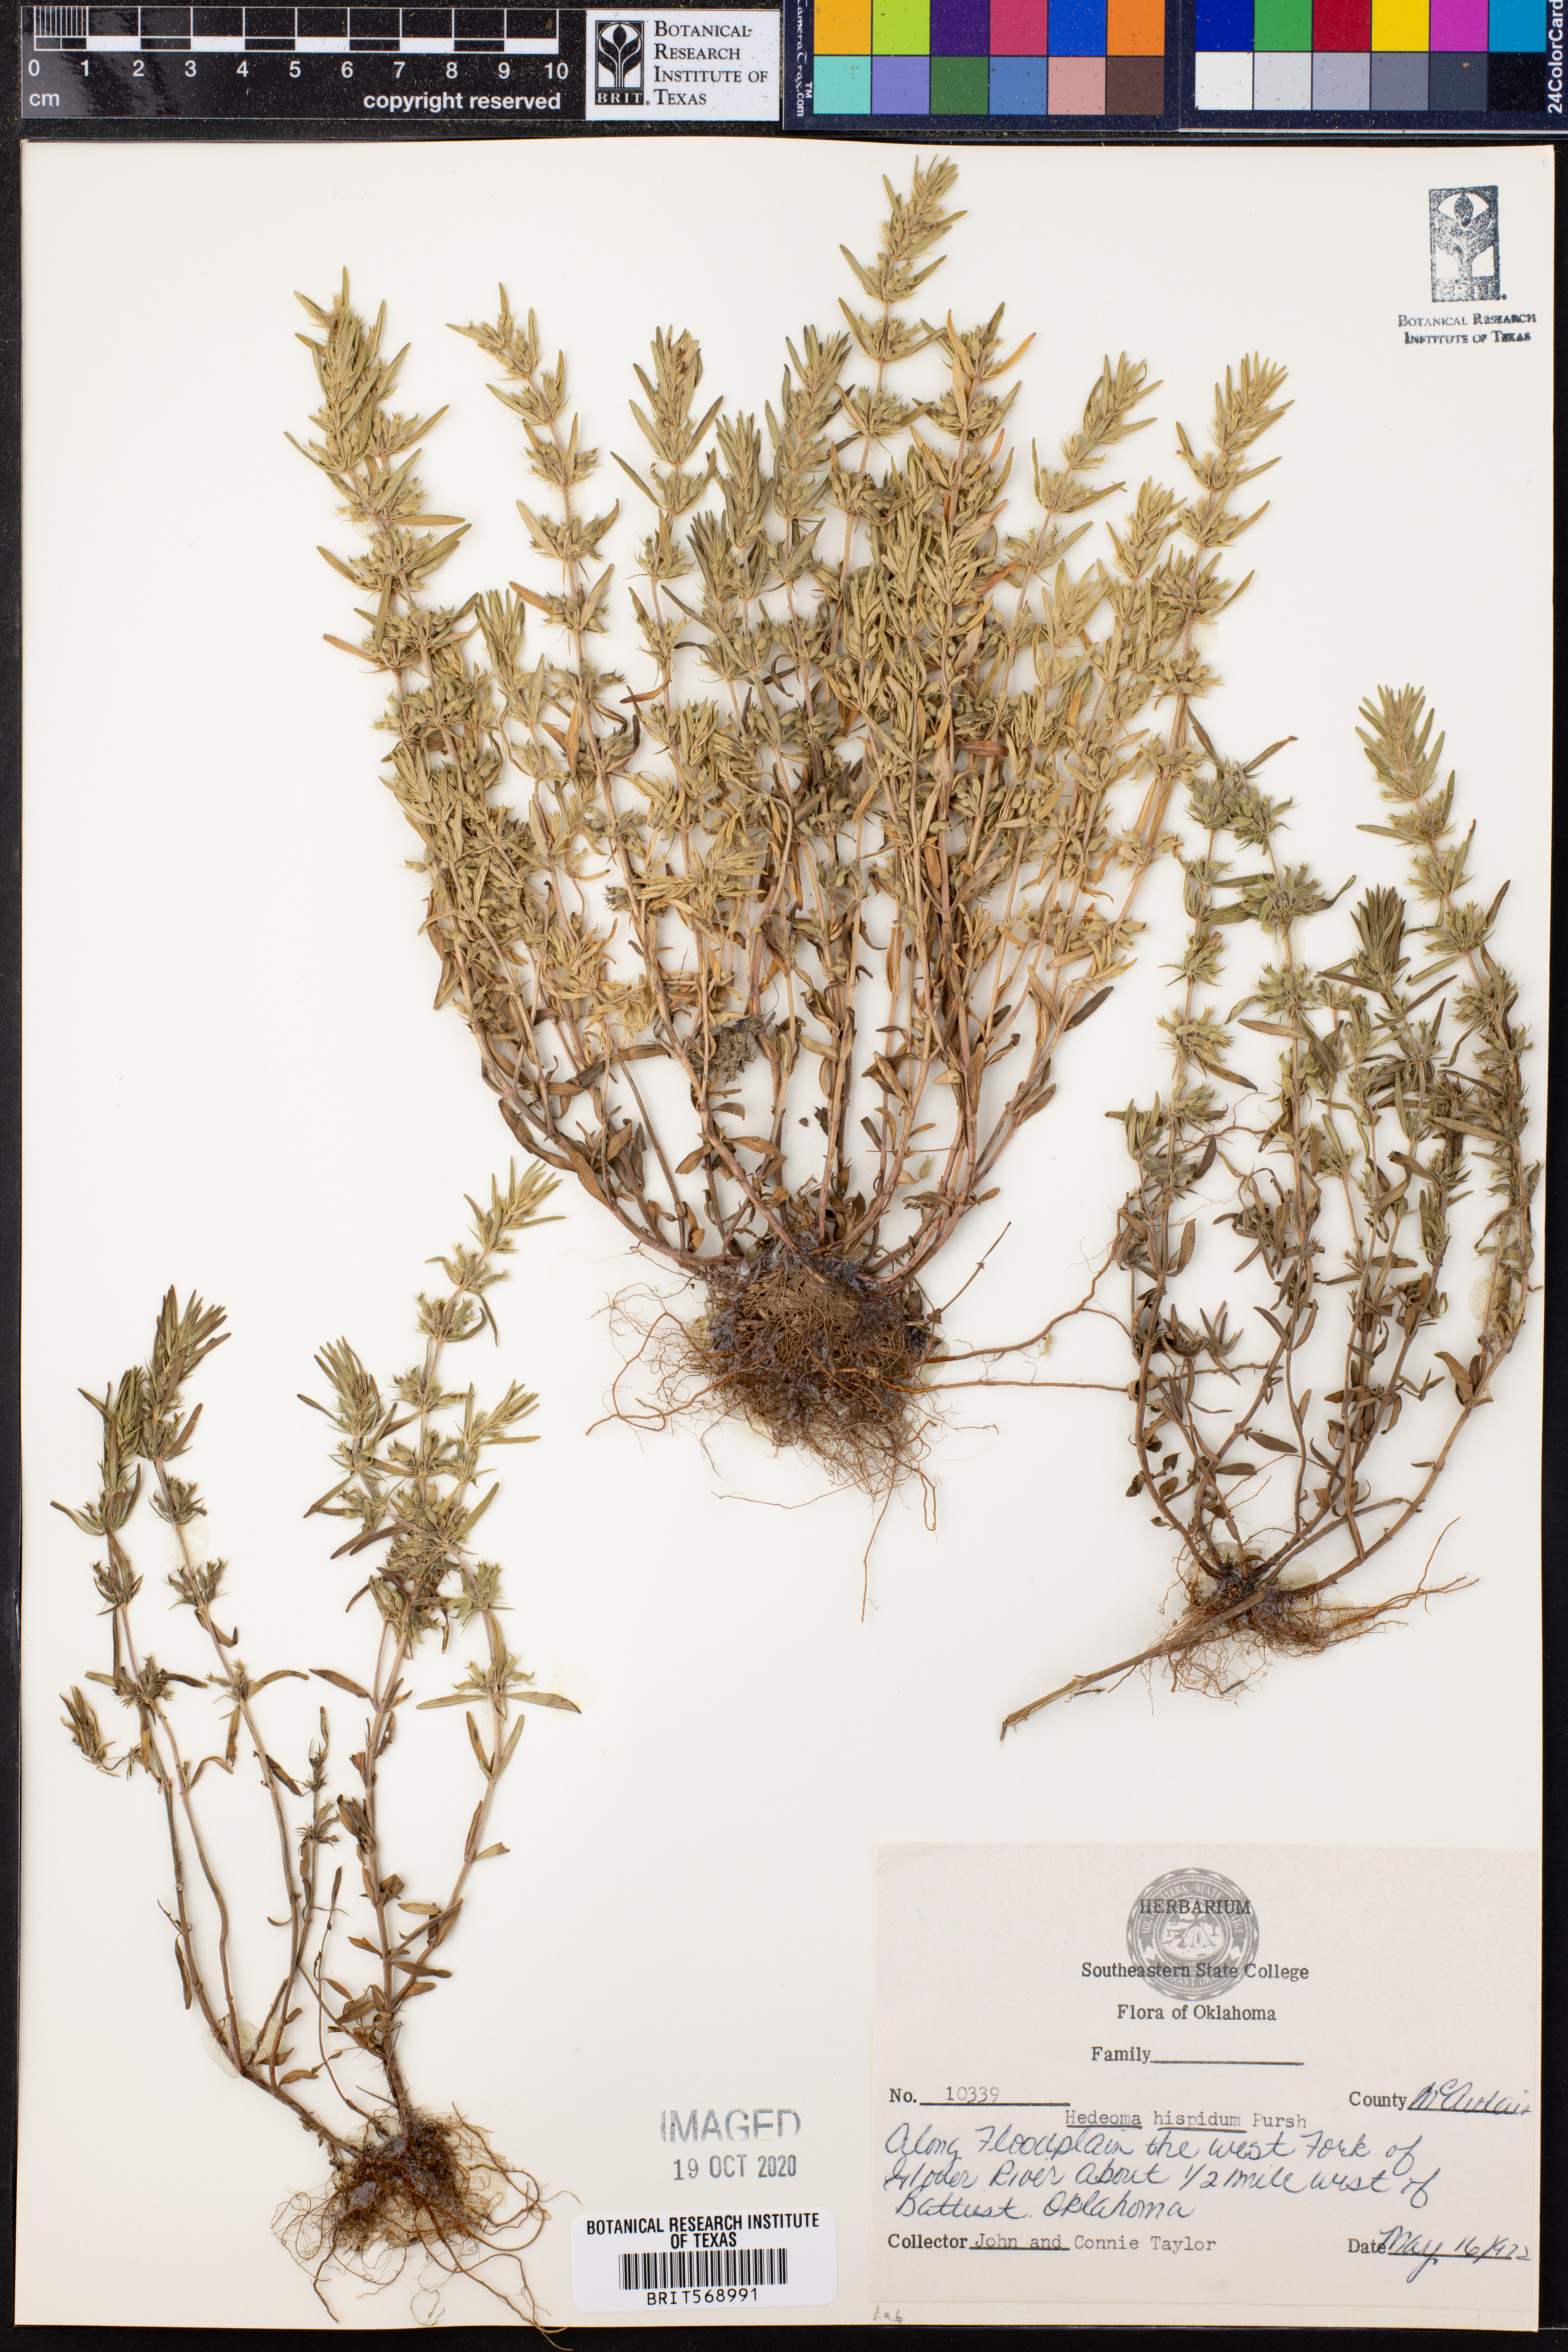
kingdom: Plantae
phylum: Tracheophyta
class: Magnoliopsida
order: Lamiales
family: Lamiaceae
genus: Hedeoma
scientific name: Hedeoma hispida
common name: Mock pennyroyal
